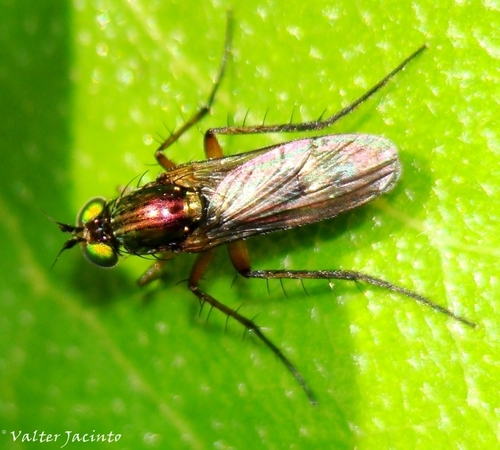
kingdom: Animalia
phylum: Arthropoda
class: Insecta
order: Diptera
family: Dolichopodidae
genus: Hercostomus
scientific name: Hercostomus appendiculatus
